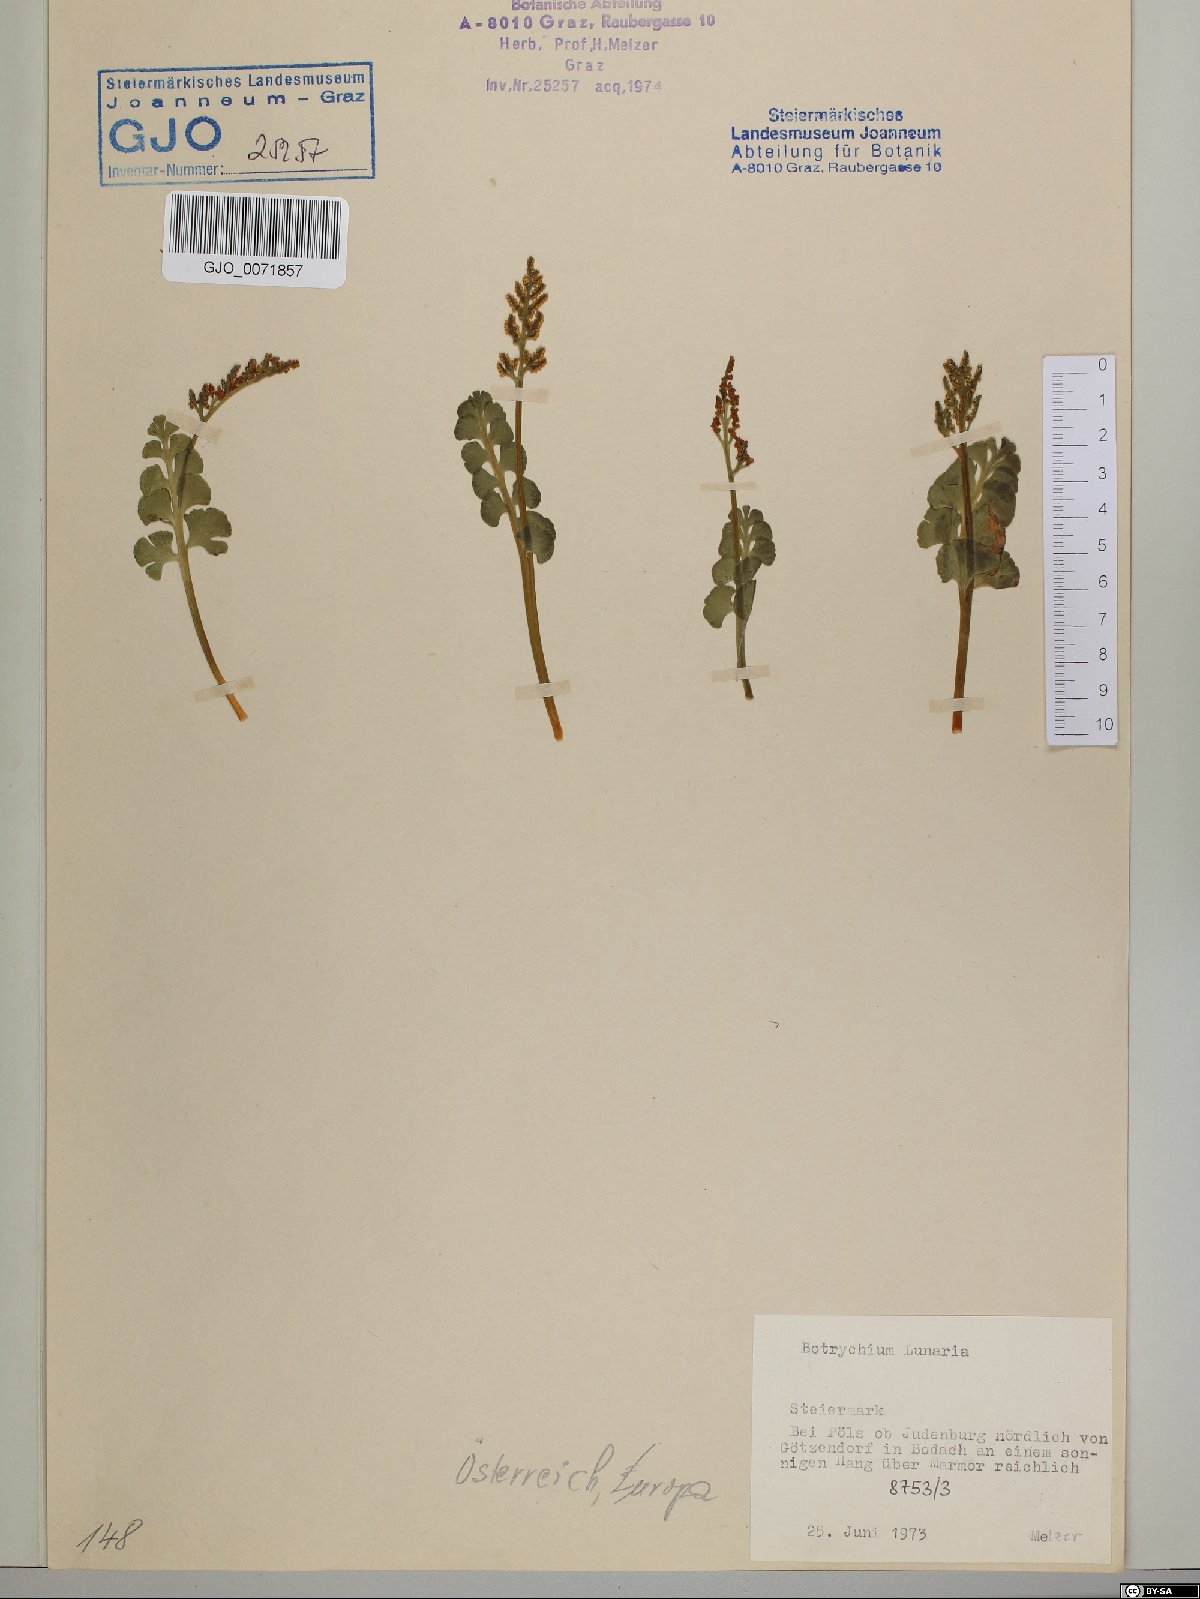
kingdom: Plantae
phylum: Tracheophyta
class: Polypodiopsida
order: Ophioglossales
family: Ophioglossaceae
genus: Botrychium
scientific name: Botrychium lunaria
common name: Moonwort
